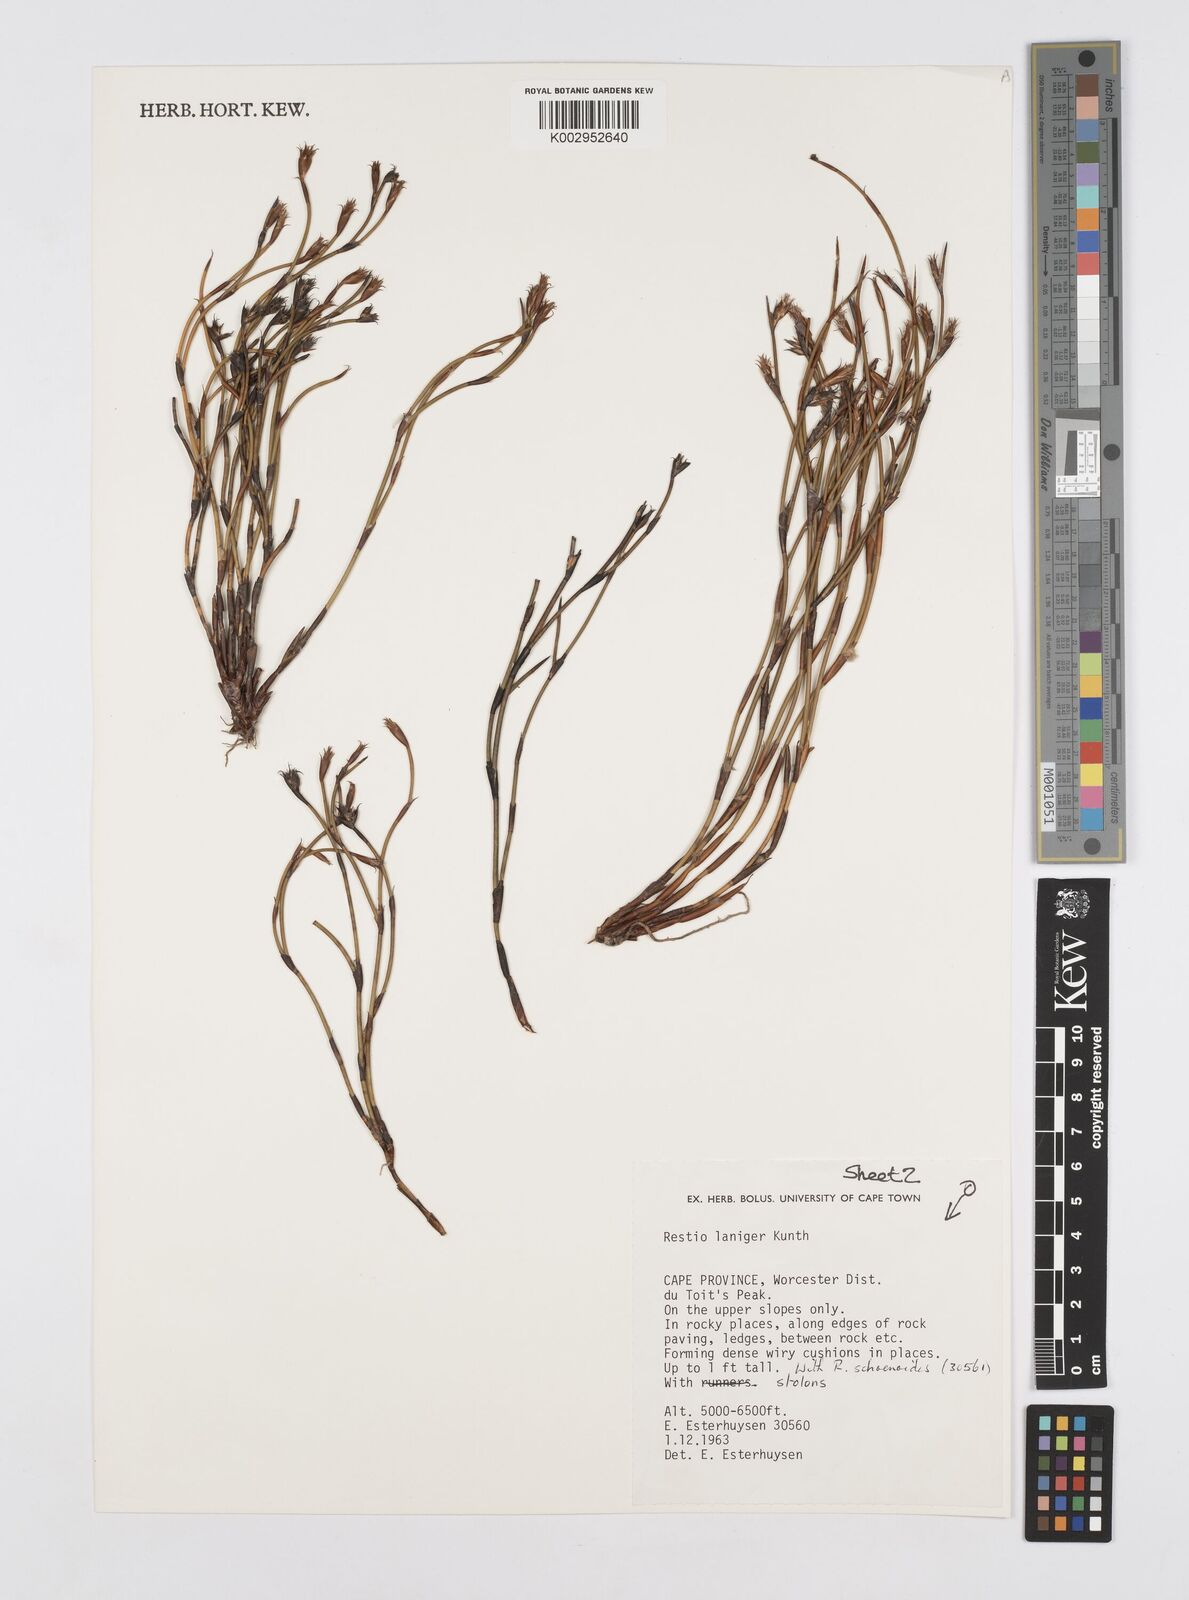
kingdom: Plantae
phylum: Tracheophyta
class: Liliopsida
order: Poales
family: Restionaceae
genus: Restio
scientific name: Restio laniger
